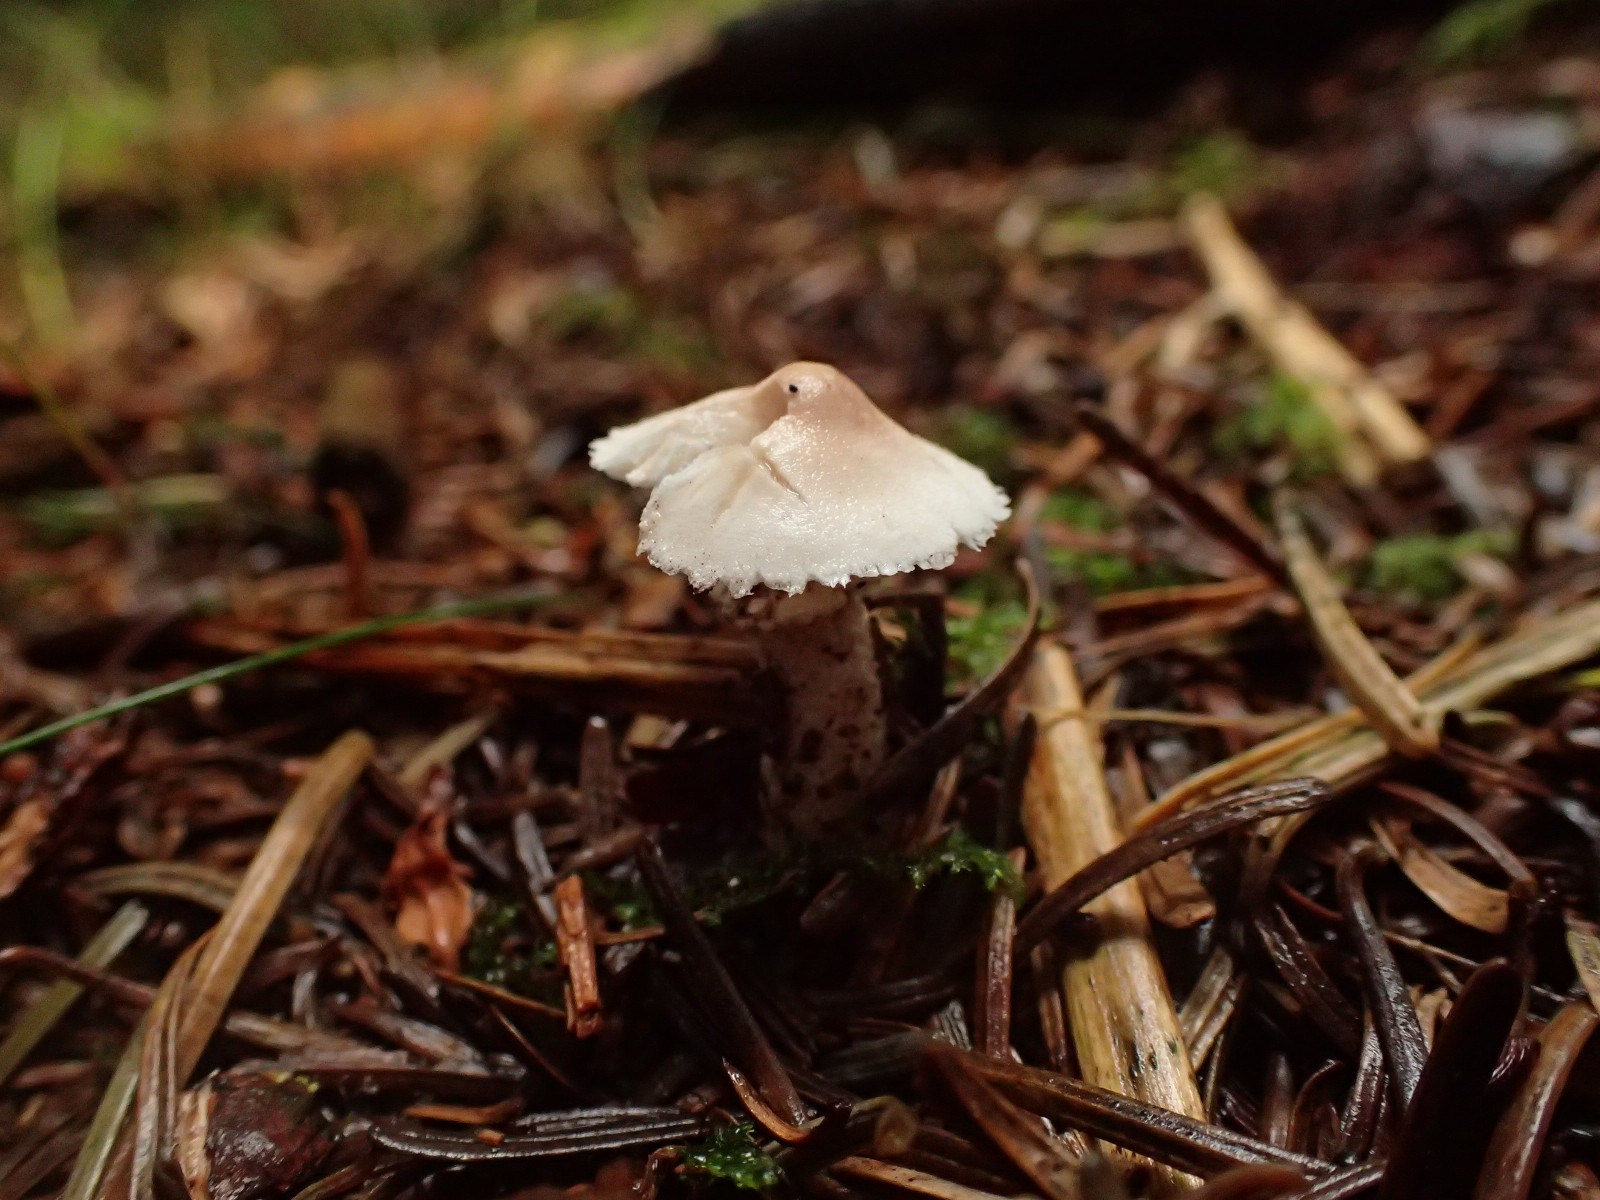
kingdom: Fungi
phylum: Basidiomycota
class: Agaricomycetes
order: Agaricales
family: Tricholomataceae
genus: Cystoderma
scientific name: Cystoderma carcharias
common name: rødgrå grynhat
